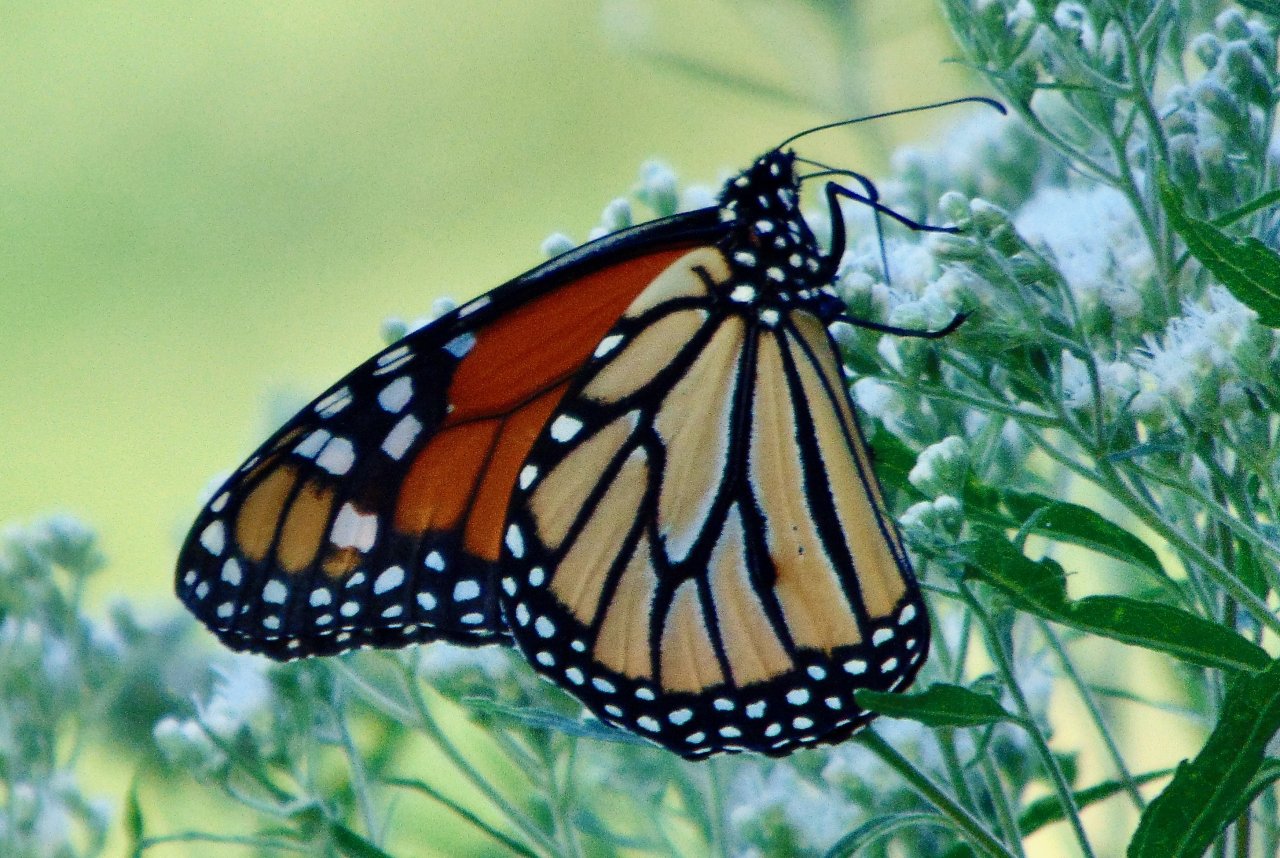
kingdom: Animalia
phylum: Arthropoda
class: Insecta
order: Lepidoptera
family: Nymphalidae
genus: Danaus
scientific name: Danaus plexippus
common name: Monarch
